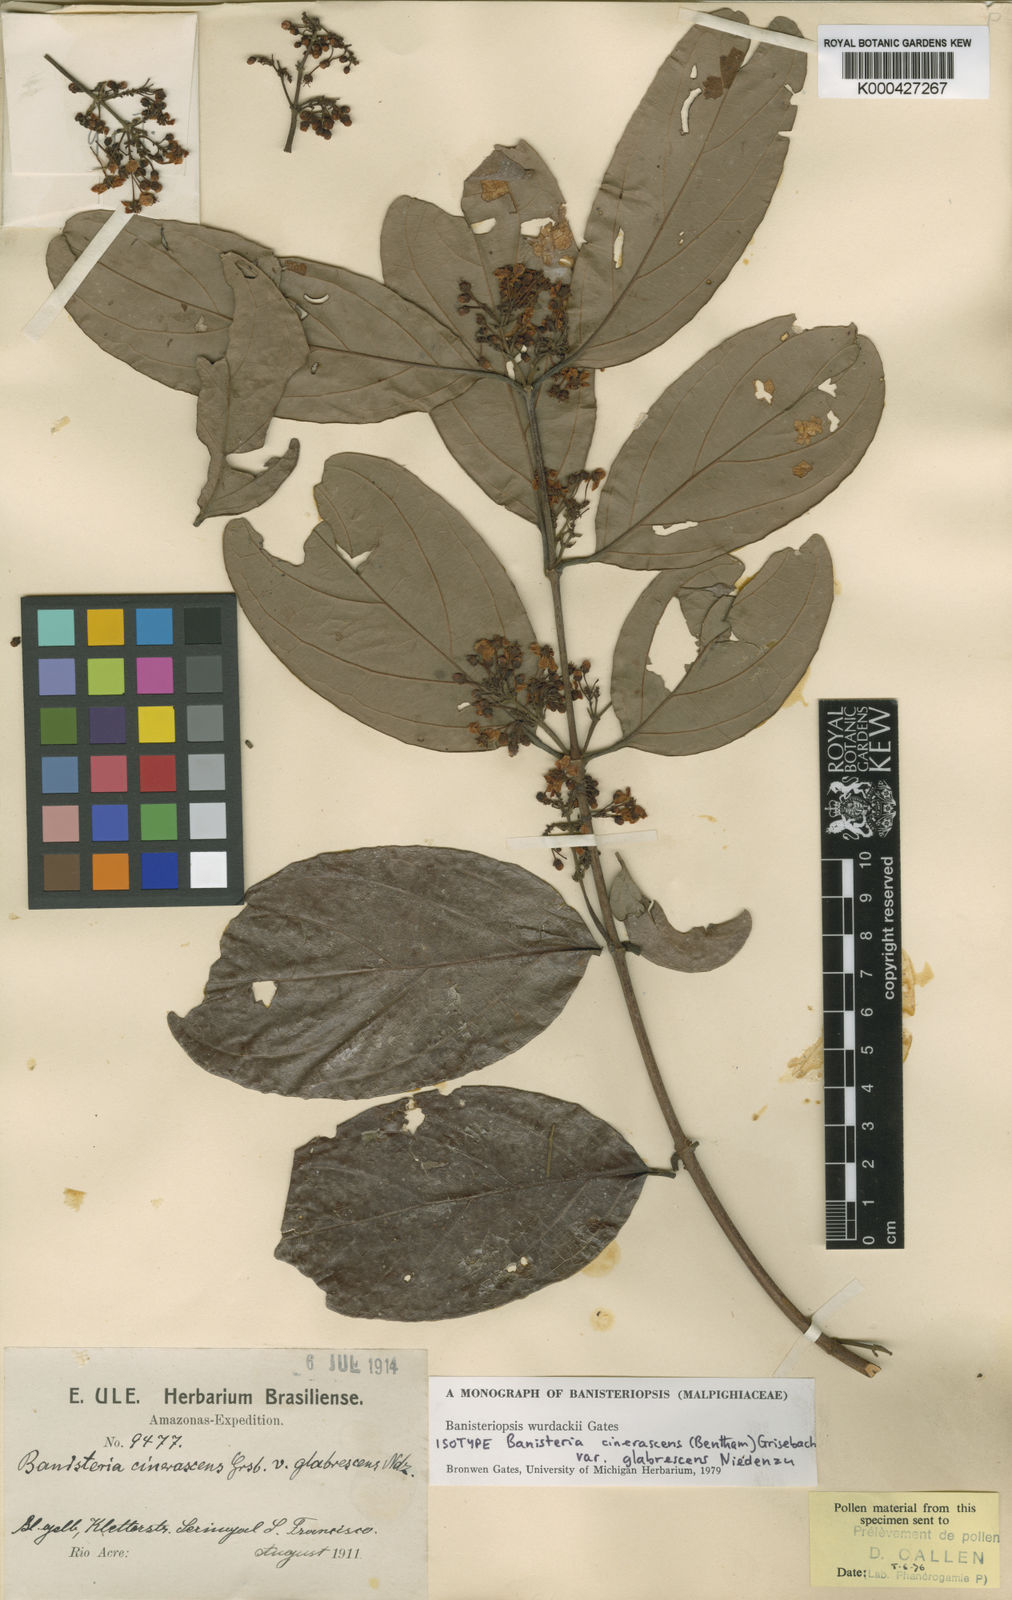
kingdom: Plantae
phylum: Tracheophyta
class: Magnoliopsida
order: Malpighiales
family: Malpighiaceae
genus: Bronwenia
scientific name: Bronwenia wurdackii
